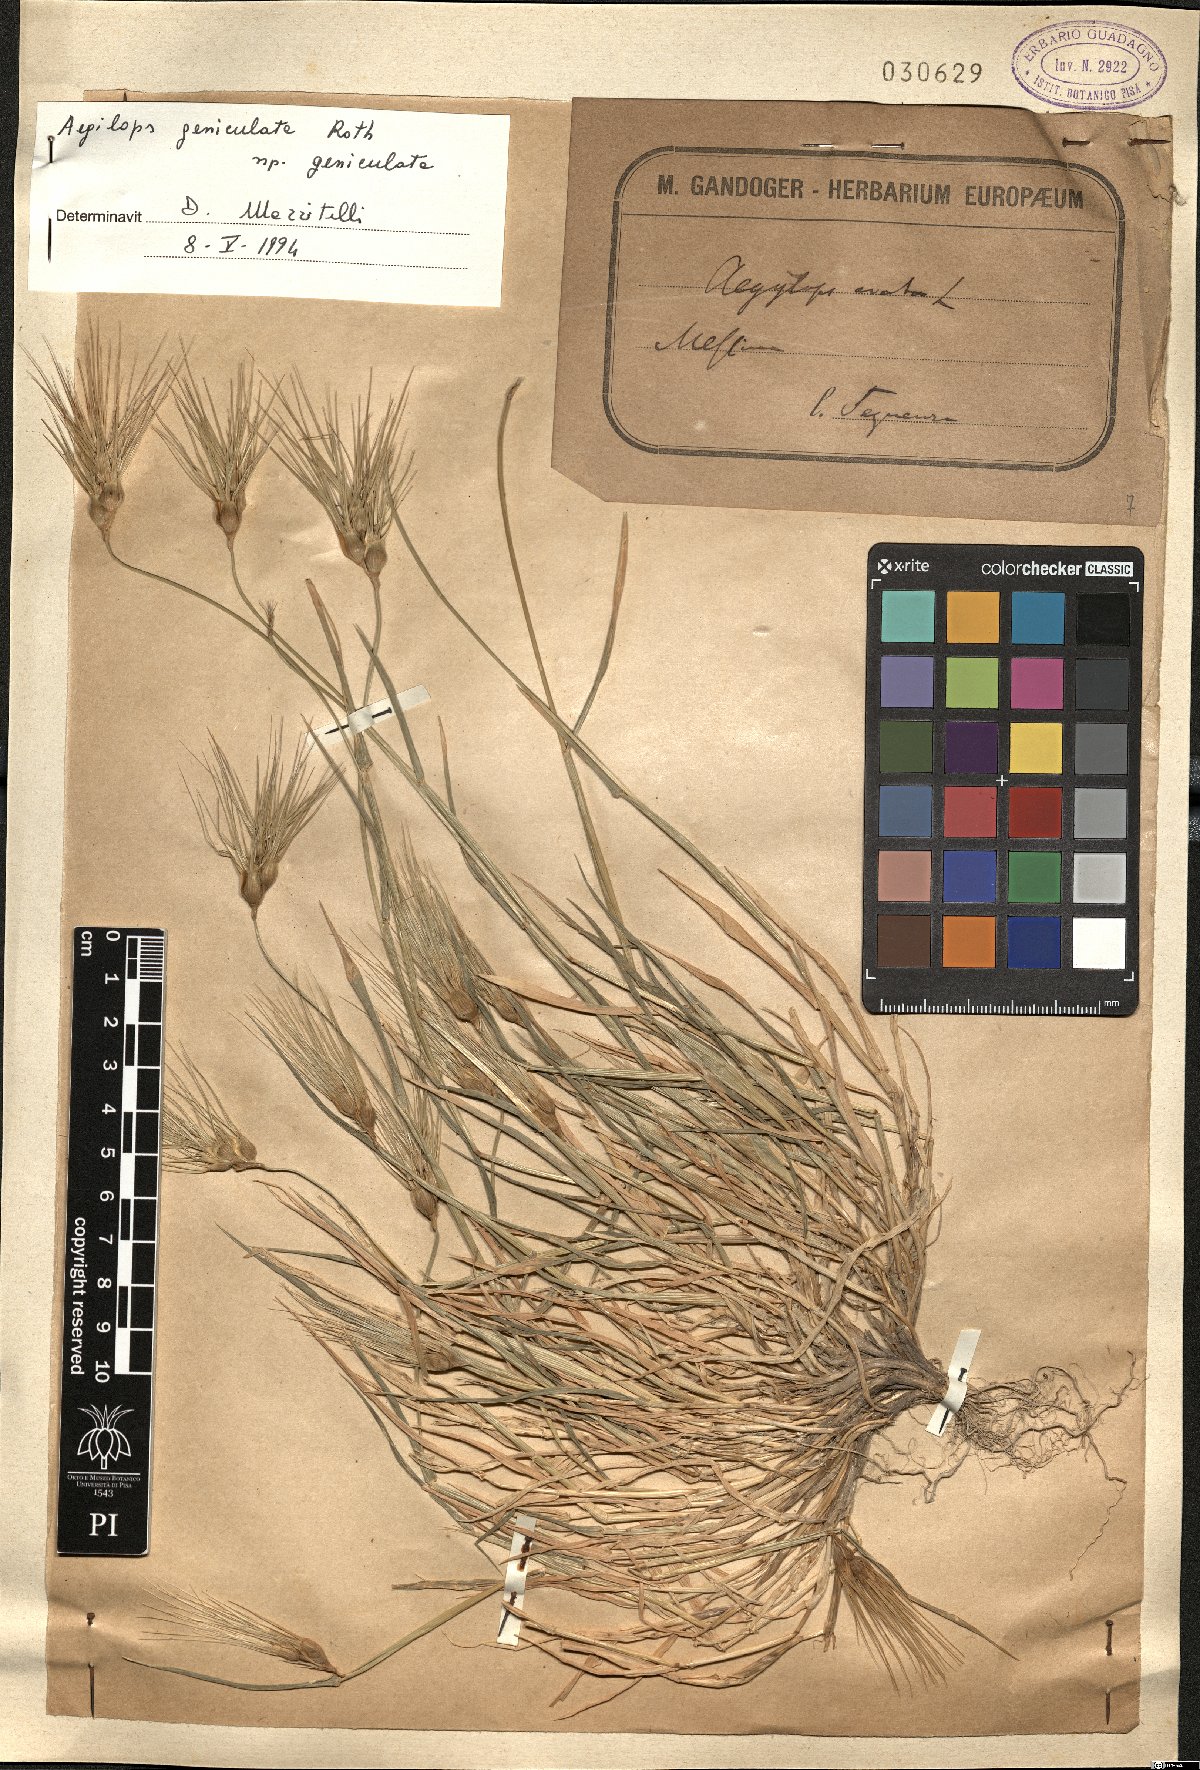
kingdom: Plantae
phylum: Tracheophyta
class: Liliopsida
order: Poales
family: Poaceae
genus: Aegilops
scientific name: Aegilops geniculata
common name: Ovate goat grass
